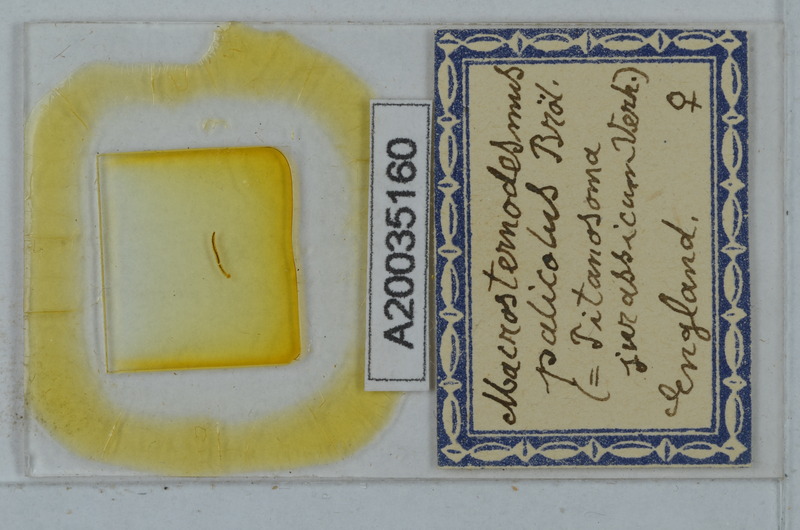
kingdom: Animalia
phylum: Arthropoda
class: Diplopoda
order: Polydesmida
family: Macrosternodesmidae
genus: Macrosternodesmus
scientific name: Macrosternodesmus palicola
